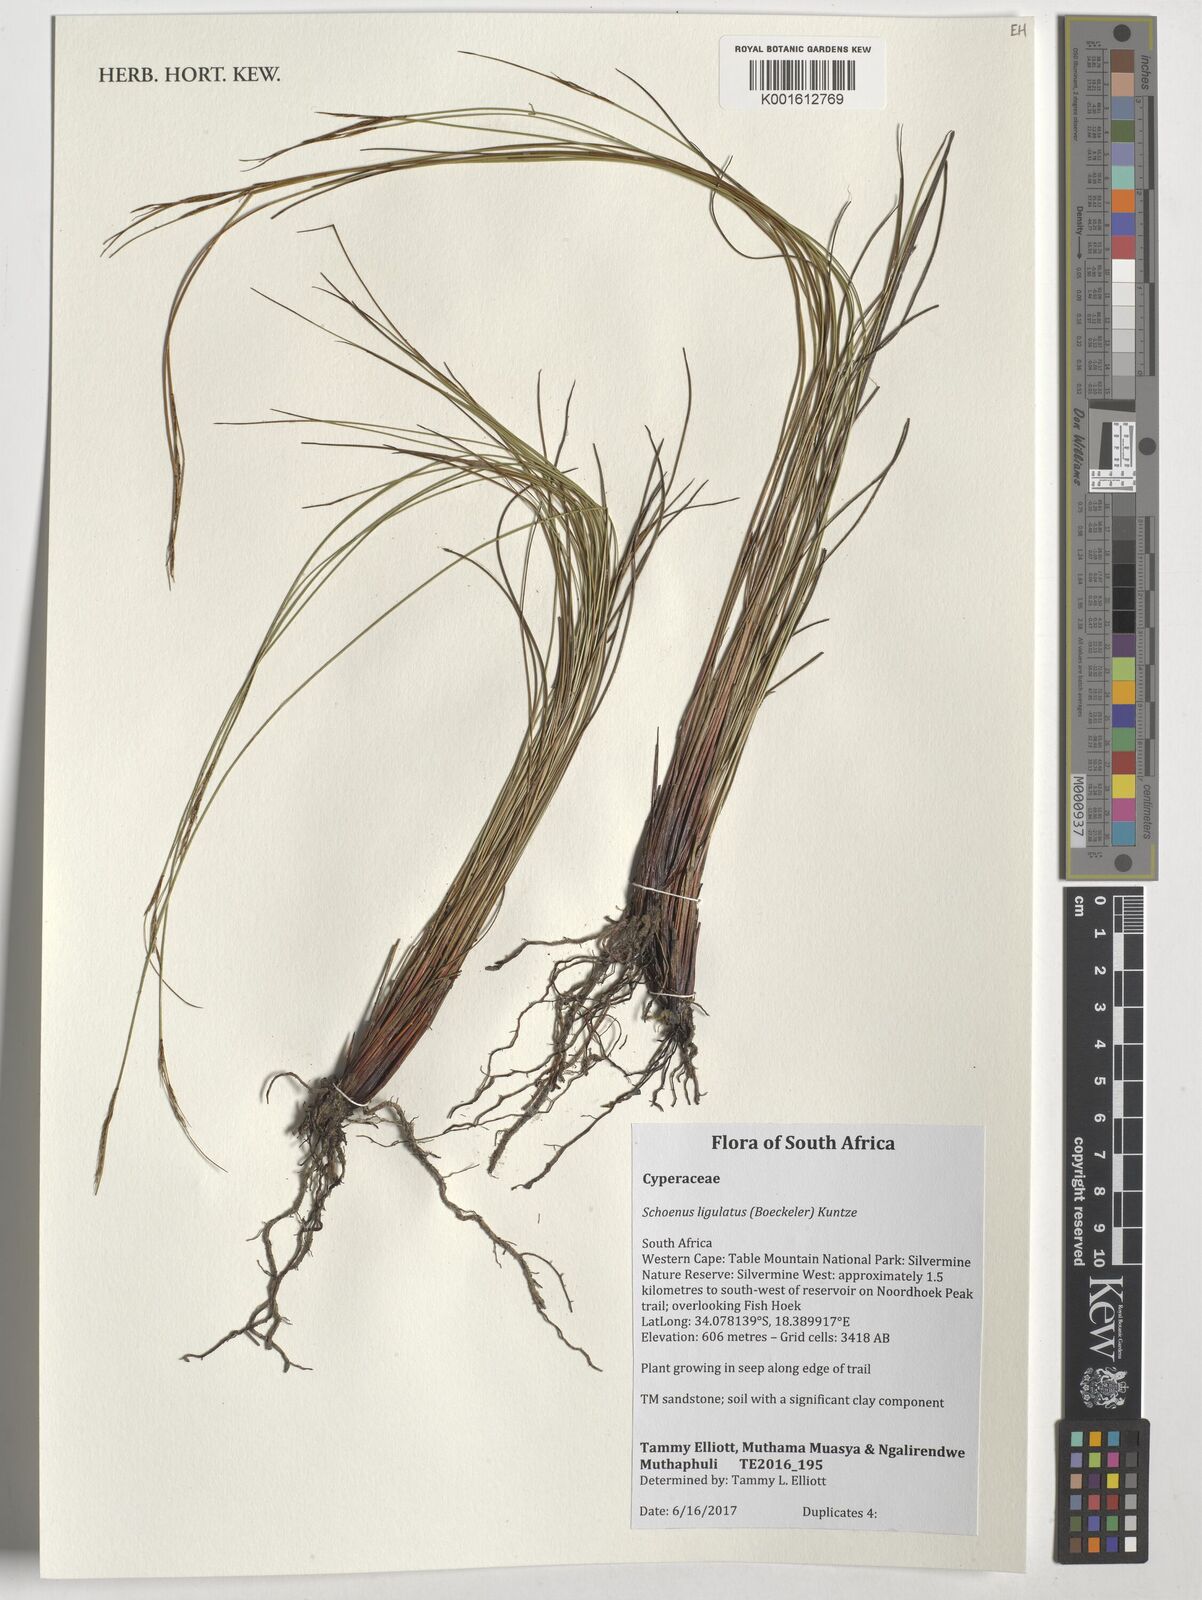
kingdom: Plantae
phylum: Tracheophyta
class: Liliopsida
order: Poales
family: Cyperaceae
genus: Schoenus
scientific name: Schoenus ligulatus
